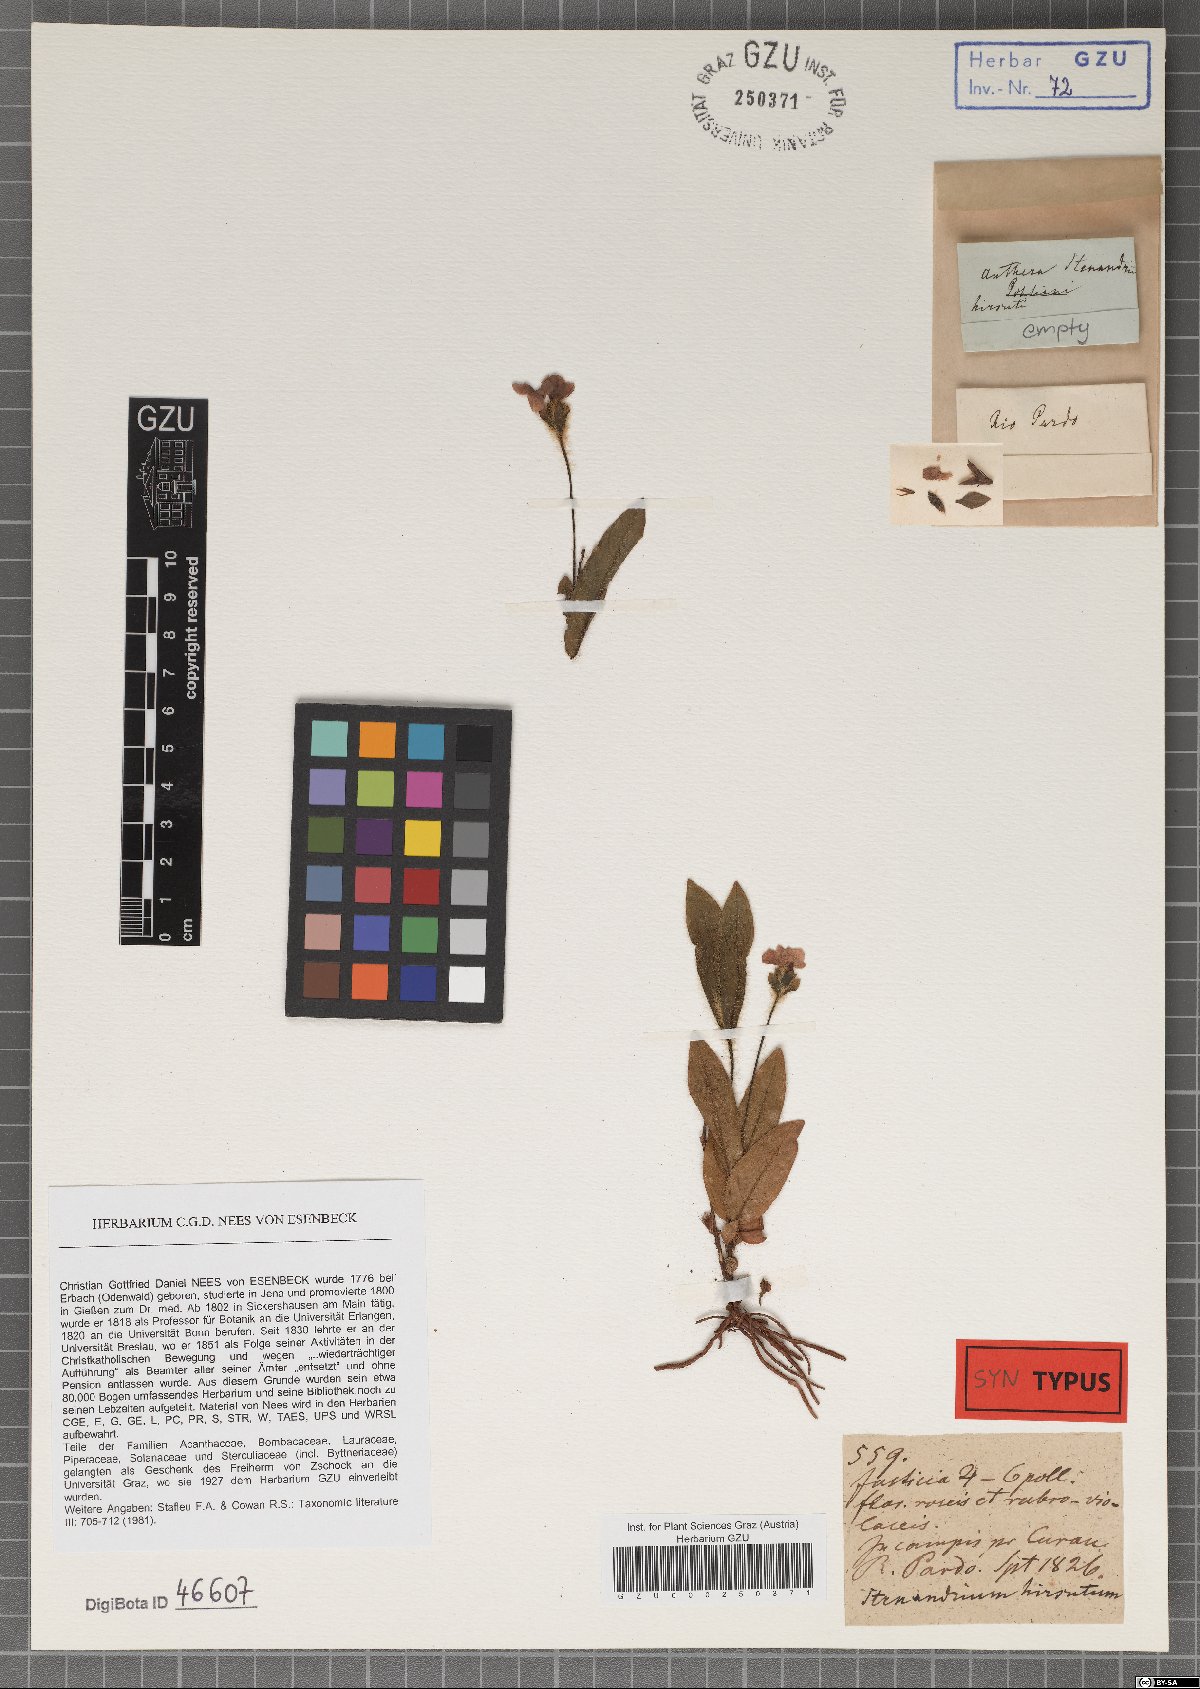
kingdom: Plantae
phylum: Tracheophyta
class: Magnoliopsida
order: Lamiales
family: Acanthaceae
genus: Stenandrium
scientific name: Stenandrium hirsutum
